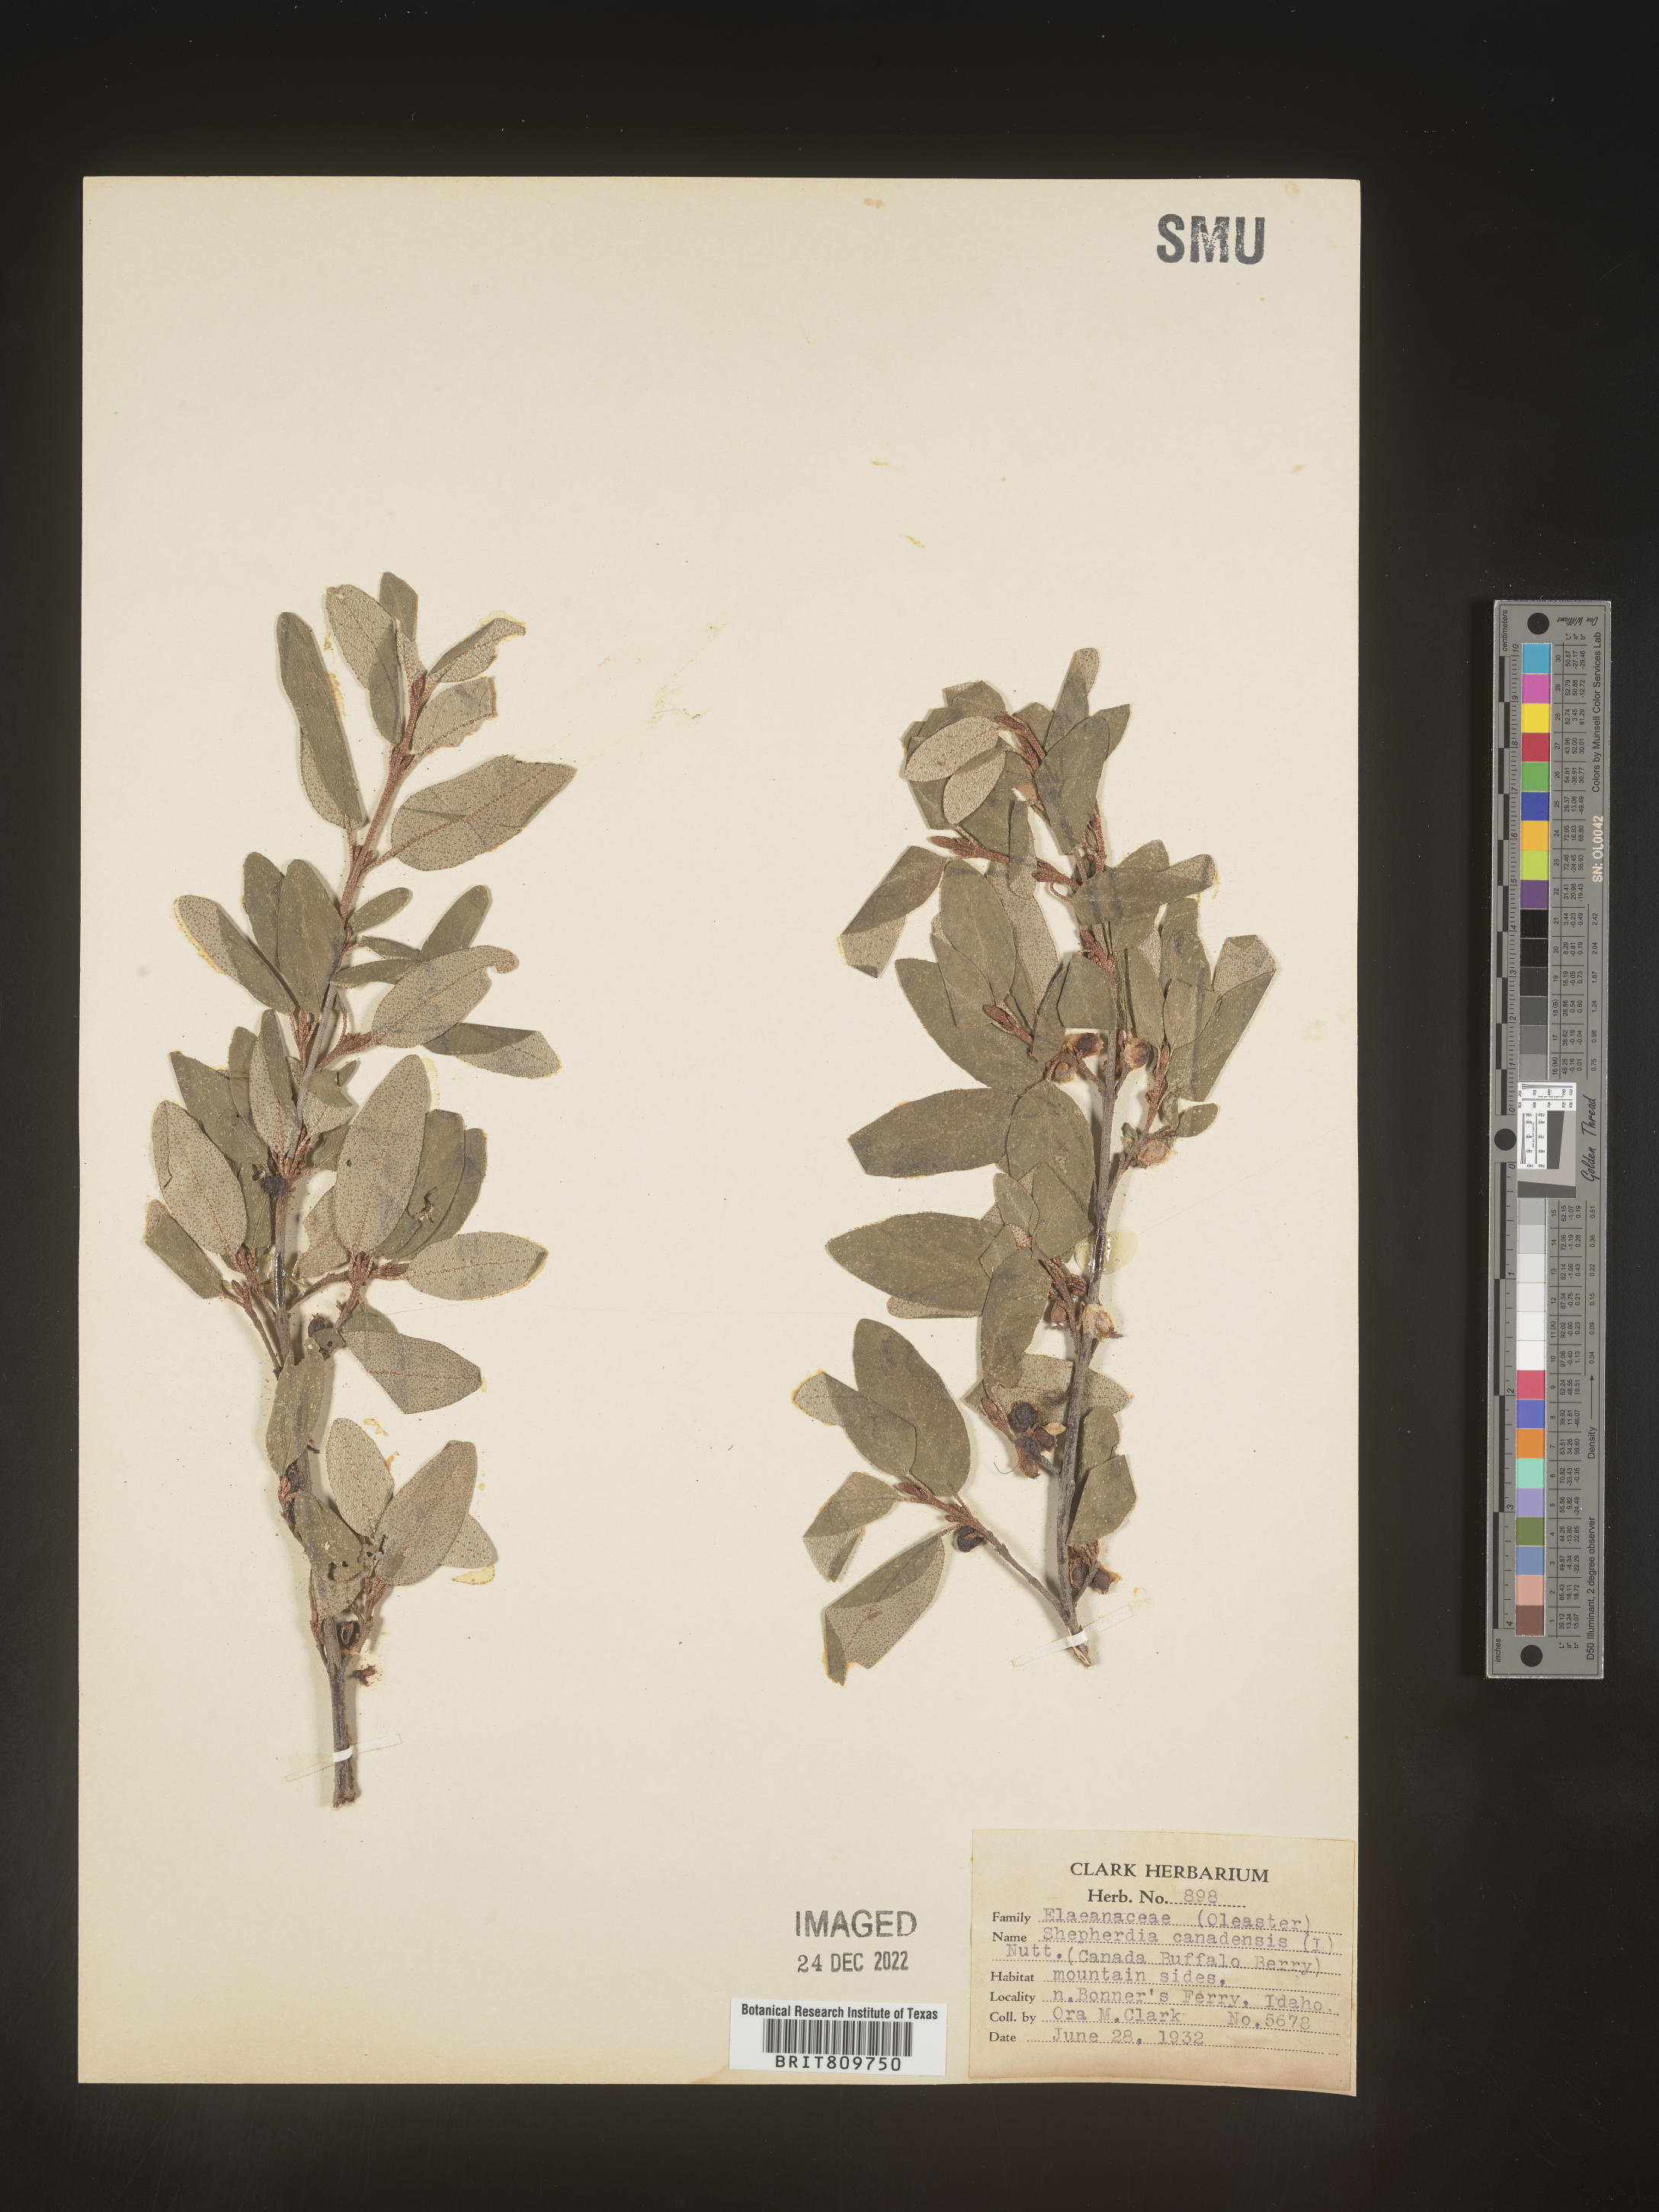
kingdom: Plantae
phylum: Tracheophyta
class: Magnoliopsida
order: Rosales
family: Elaeagnaceae
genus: Shepherdia
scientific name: Shepherdia canadensis
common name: Soapberry
